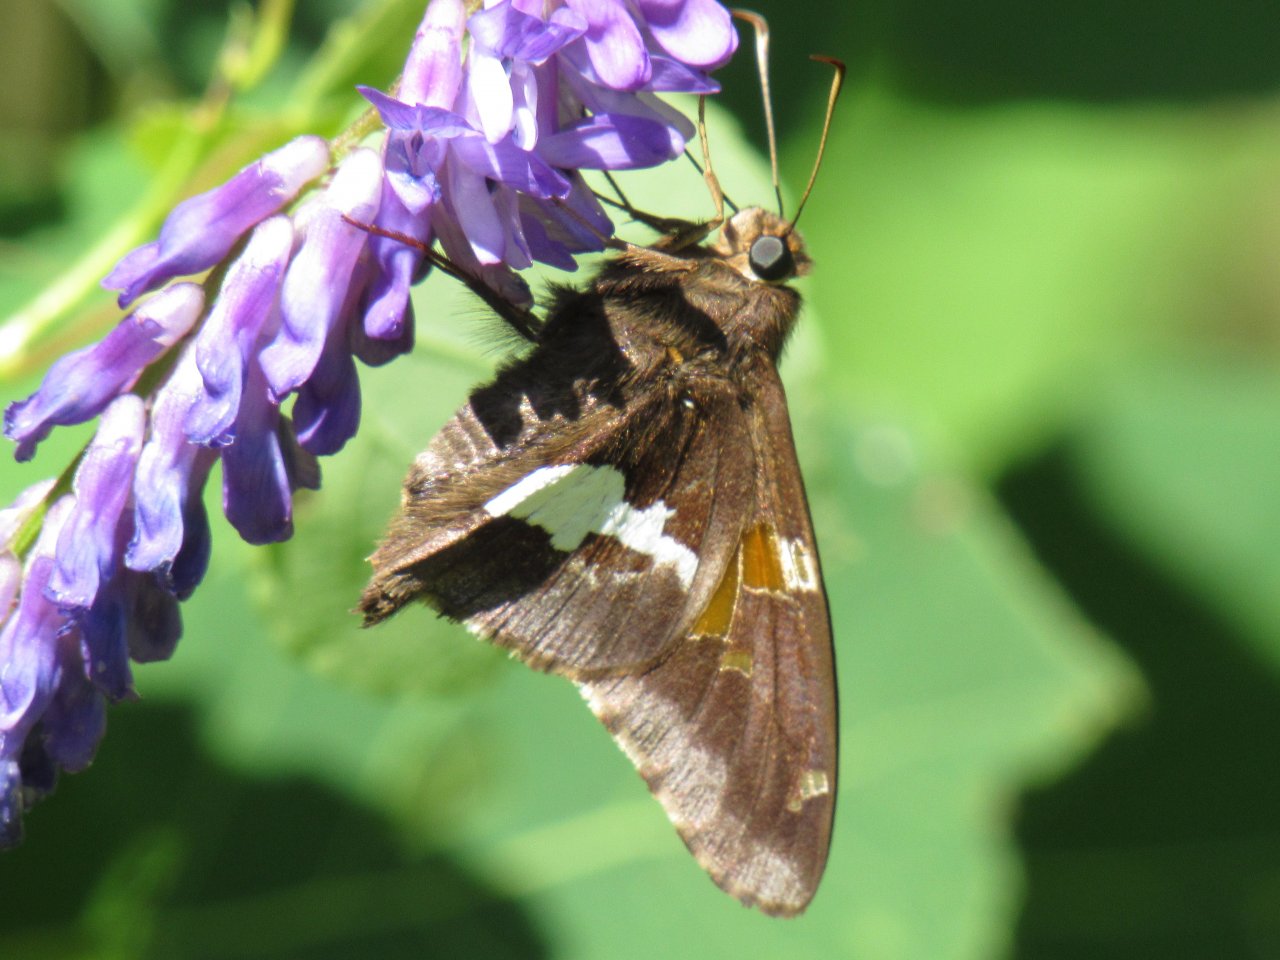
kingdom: Animalia
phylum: Arthropoda
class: Insecta
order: Lepidoptera
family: Hesperiidae
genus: Epargyreus
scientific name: Epargyreus clarus
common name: Silver-spotted Skipper
